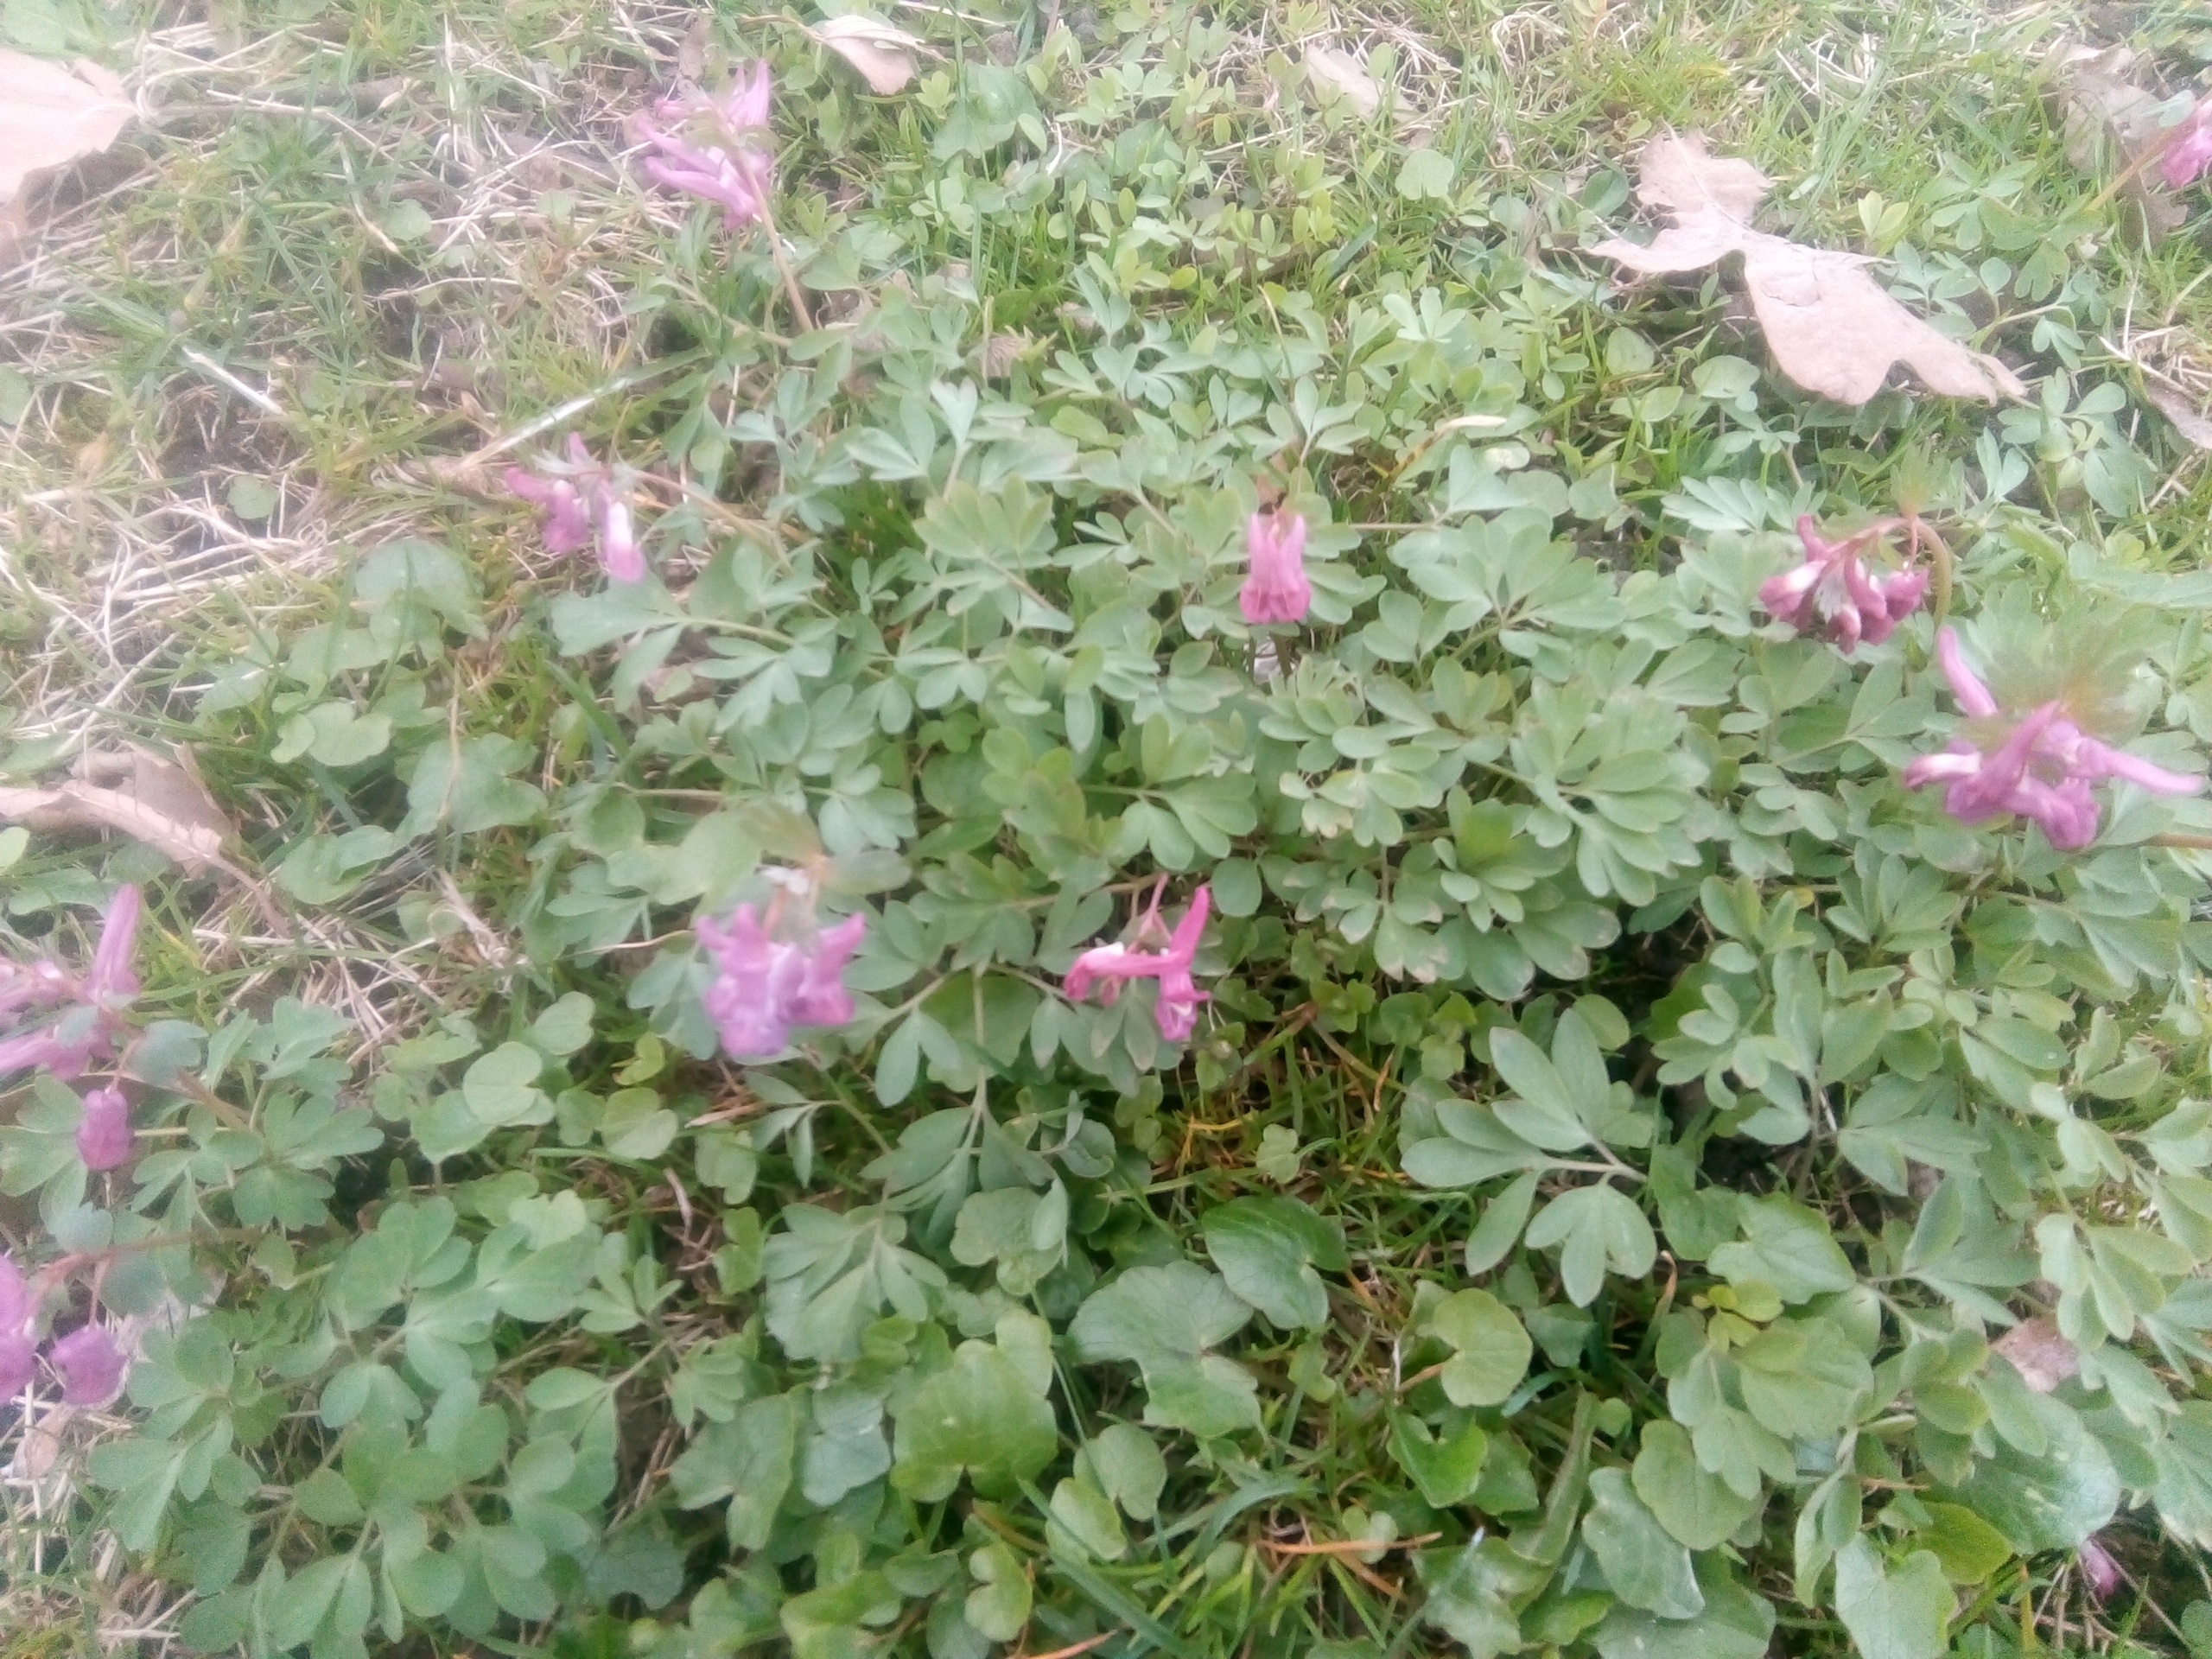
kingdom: Plantae
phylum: Tracheophyta
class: Magnoliopsida
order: Ranunculales
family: Papaveraceae
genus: Corydalis
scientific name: Corydalis cava
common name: Hulrodet lærkespore
